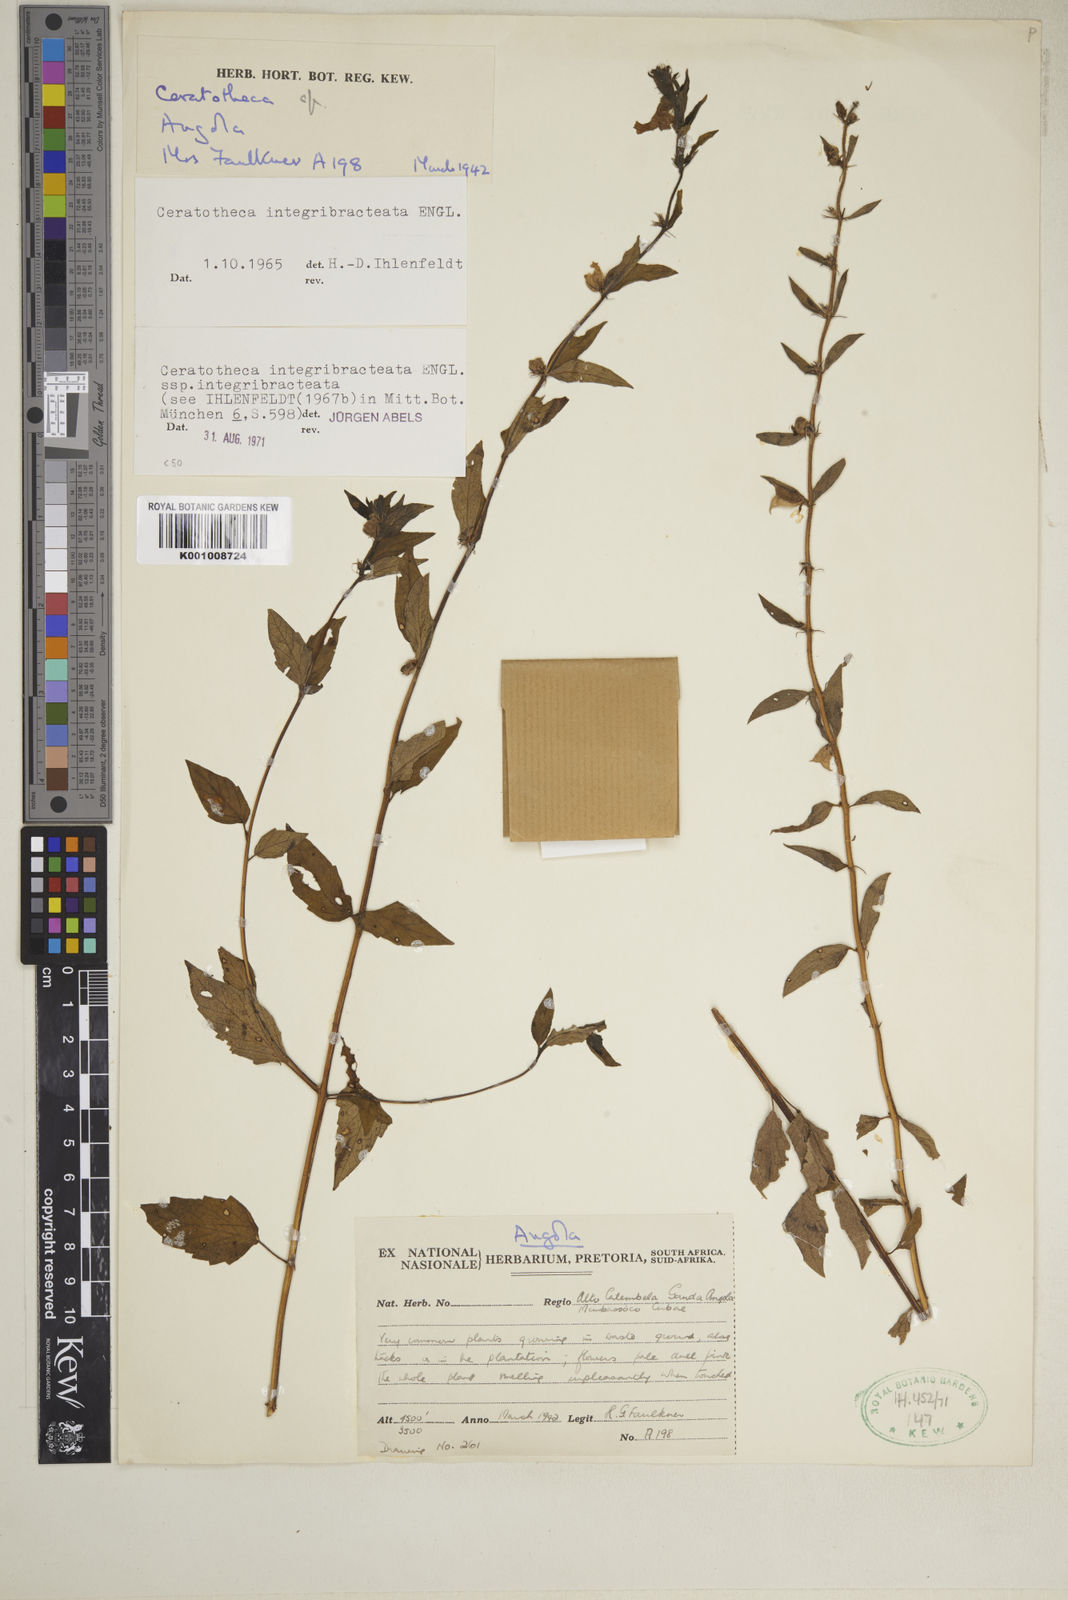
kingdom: Plantae
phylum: Tracheophyta
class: Magnoliopsida
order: Lamiales
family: Pedaliaceae
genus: Sesamum
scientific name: Sesamum integribracteatum
